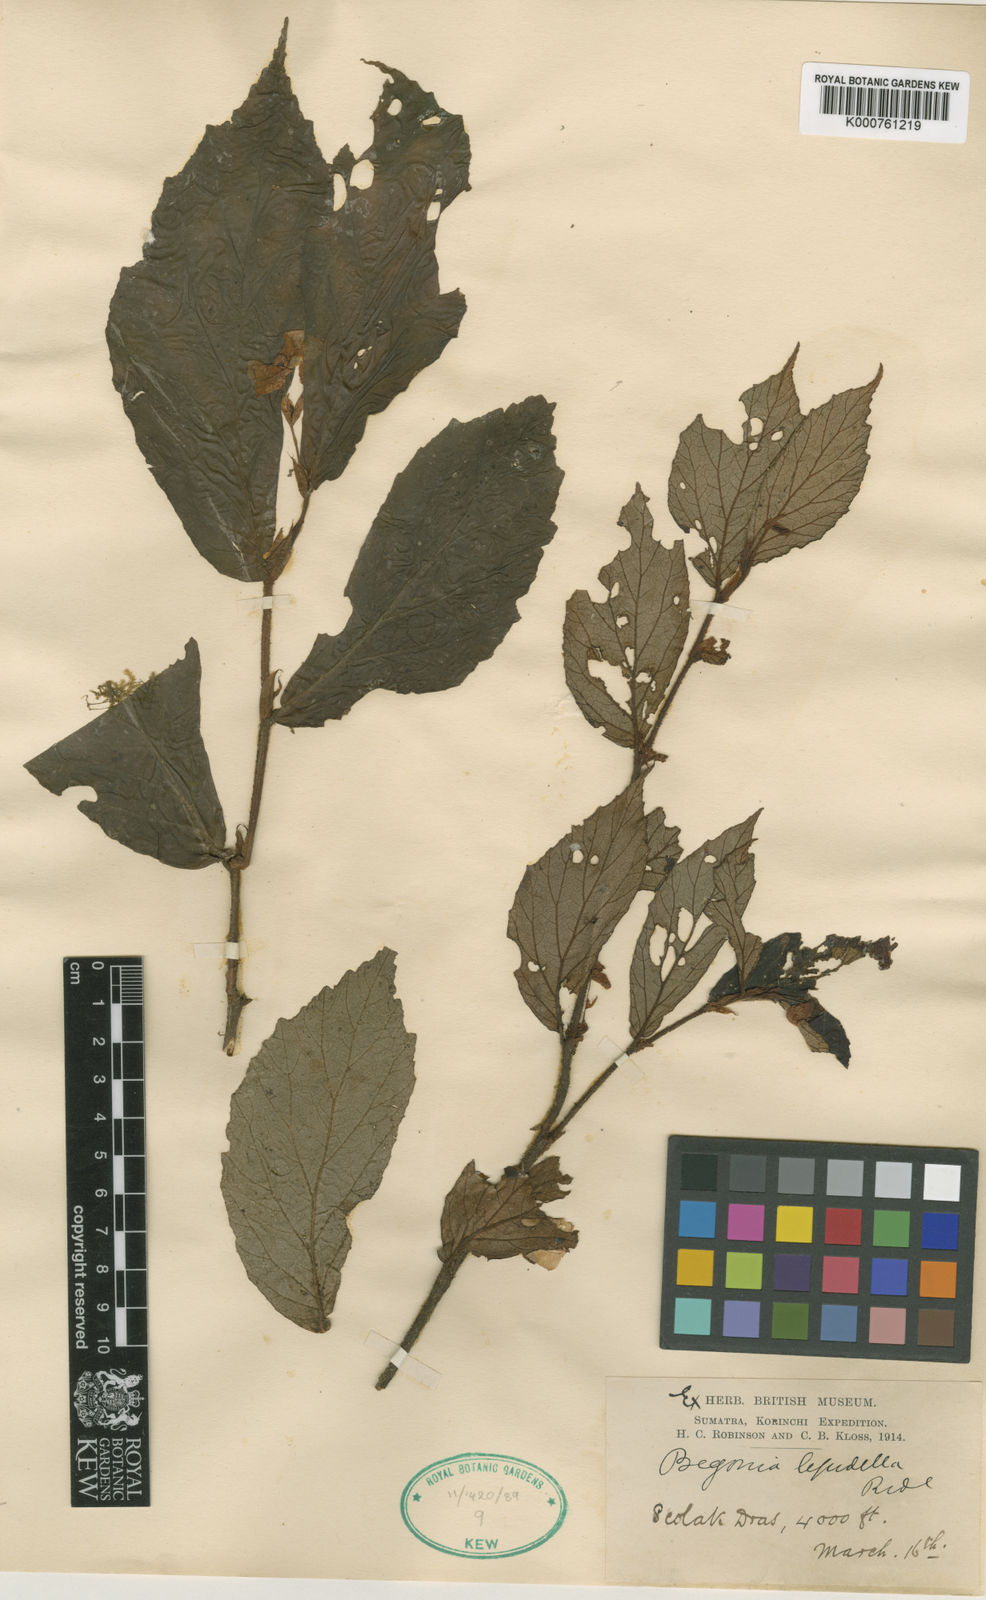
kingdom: Plantae
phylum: Tracheophyta
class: Magnoliopsida
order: Cucurbitales
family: Begoniaceae
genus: Begonia
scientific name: Begonia lepidella
